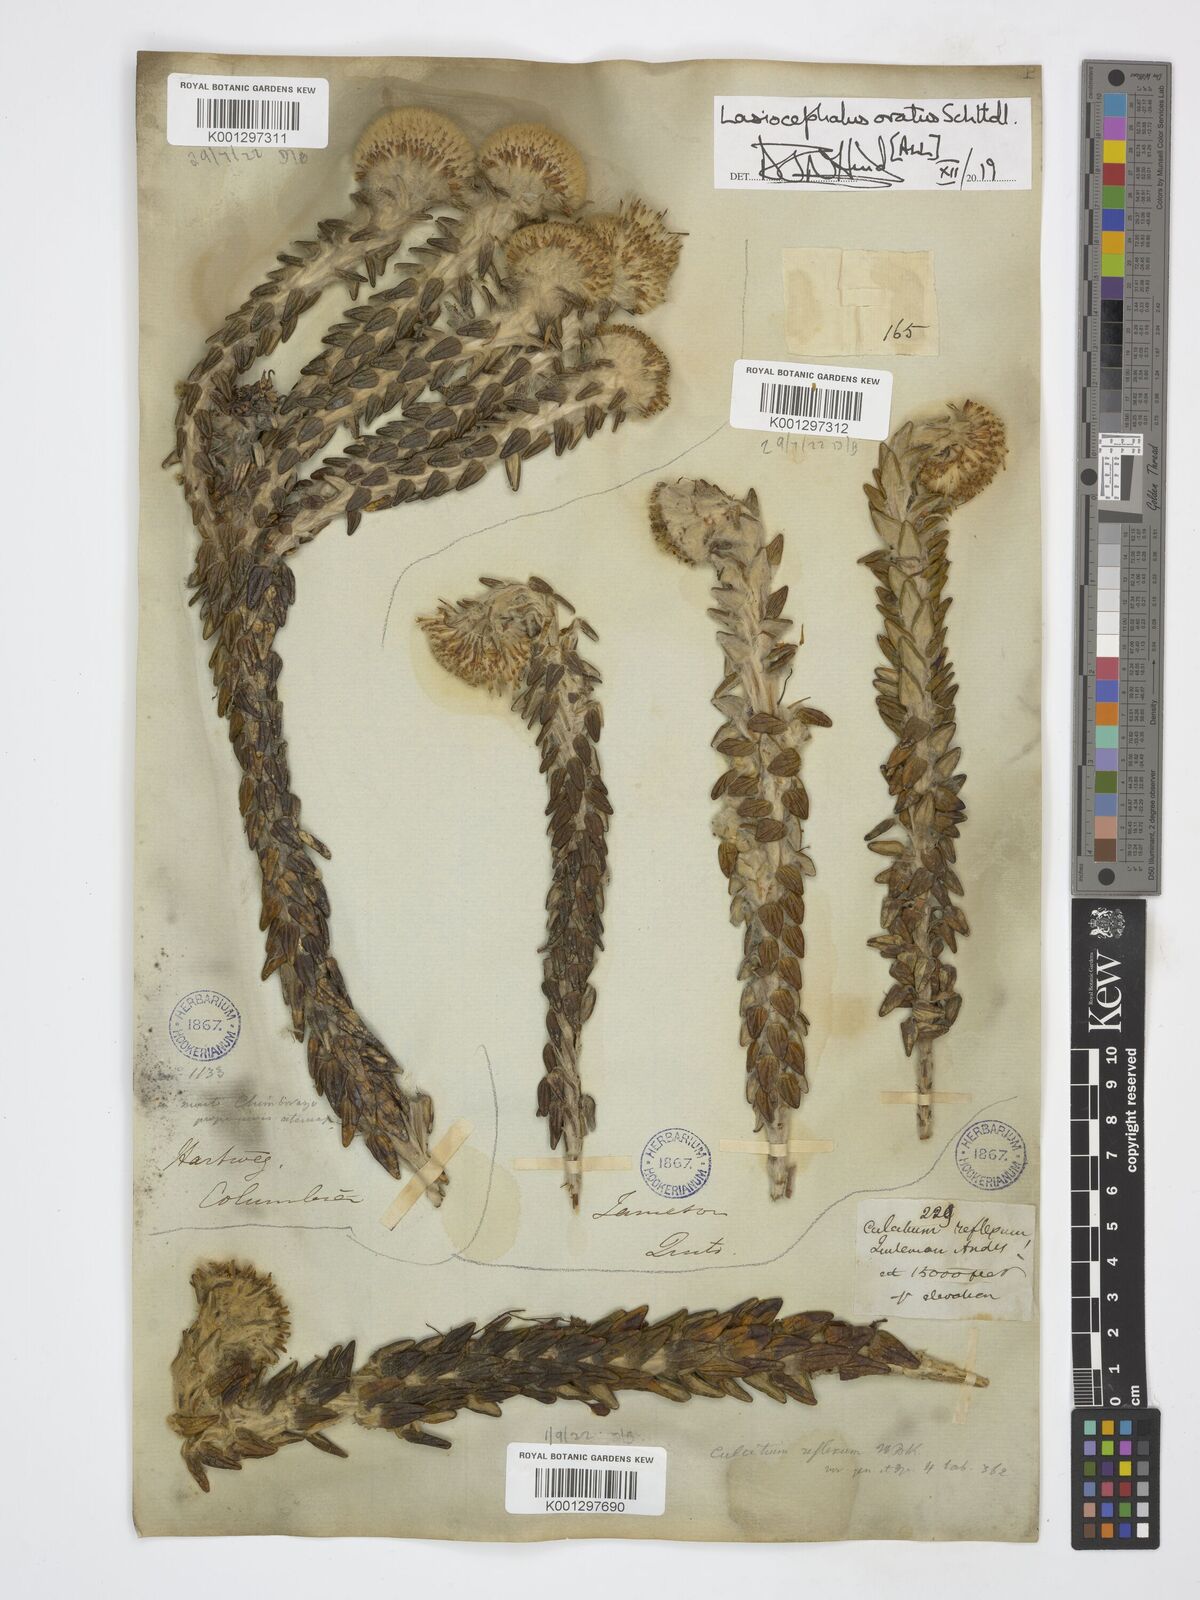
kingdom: Plantae
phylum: Tracheophyta
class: Magnoliopsida
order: Asterales
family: Asteraceae
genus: Lasiocephalus
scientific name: Lasiocephalus ovatus
